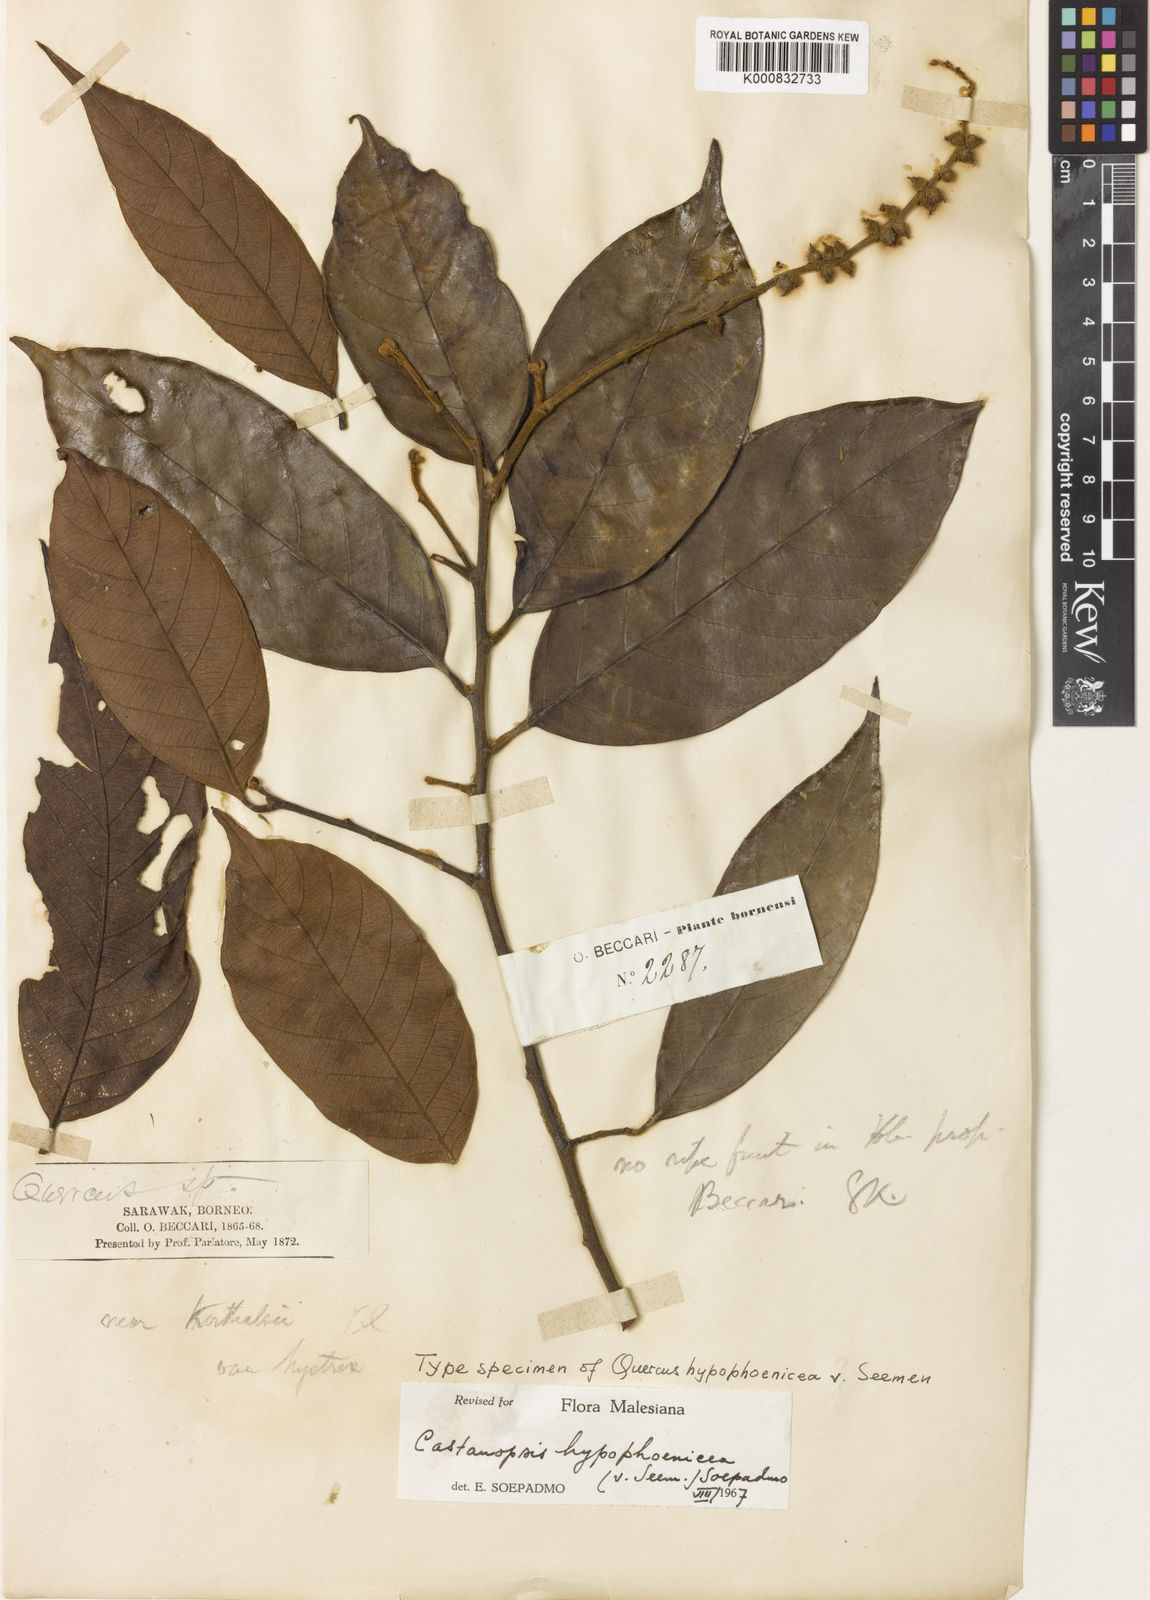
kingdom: Plantae
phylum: Tracheophyta
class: Magnoliopsida
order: Fagales
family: Fagaceae
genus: Castanopsis
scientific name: Castanopsis hypophoenicea
